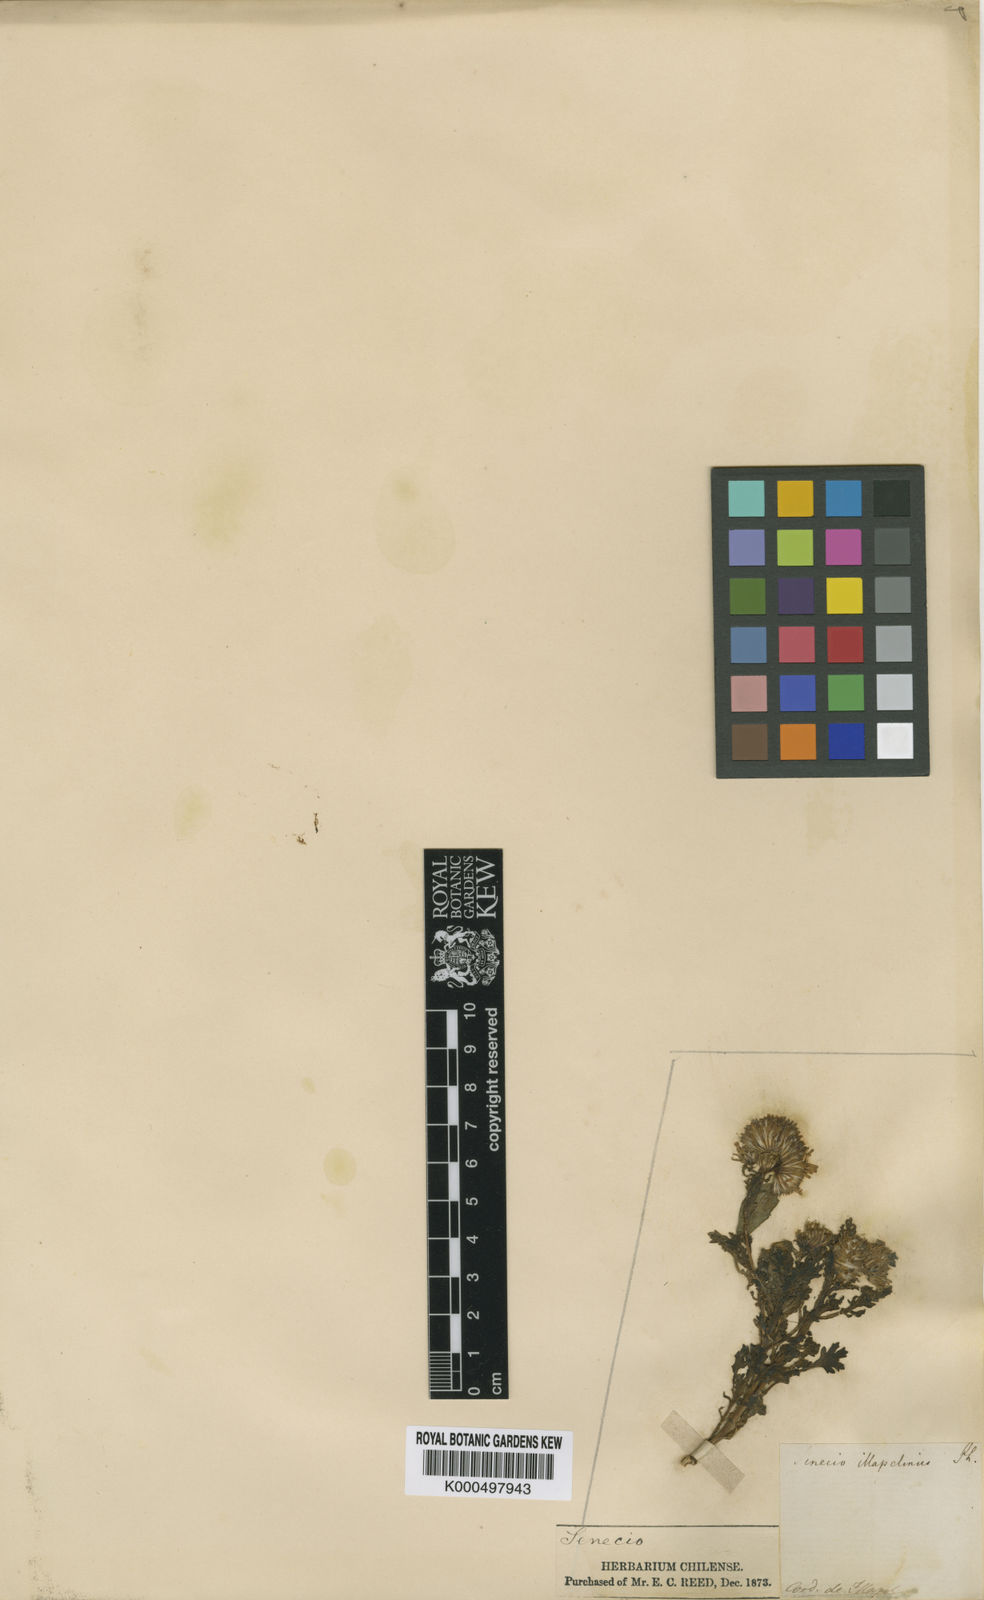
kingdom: Plantae
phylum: Tracheophyta
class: Magnoliopsida
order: Asterales
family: Asteraceae
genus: Senecio
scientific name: Senecio illapelinus
